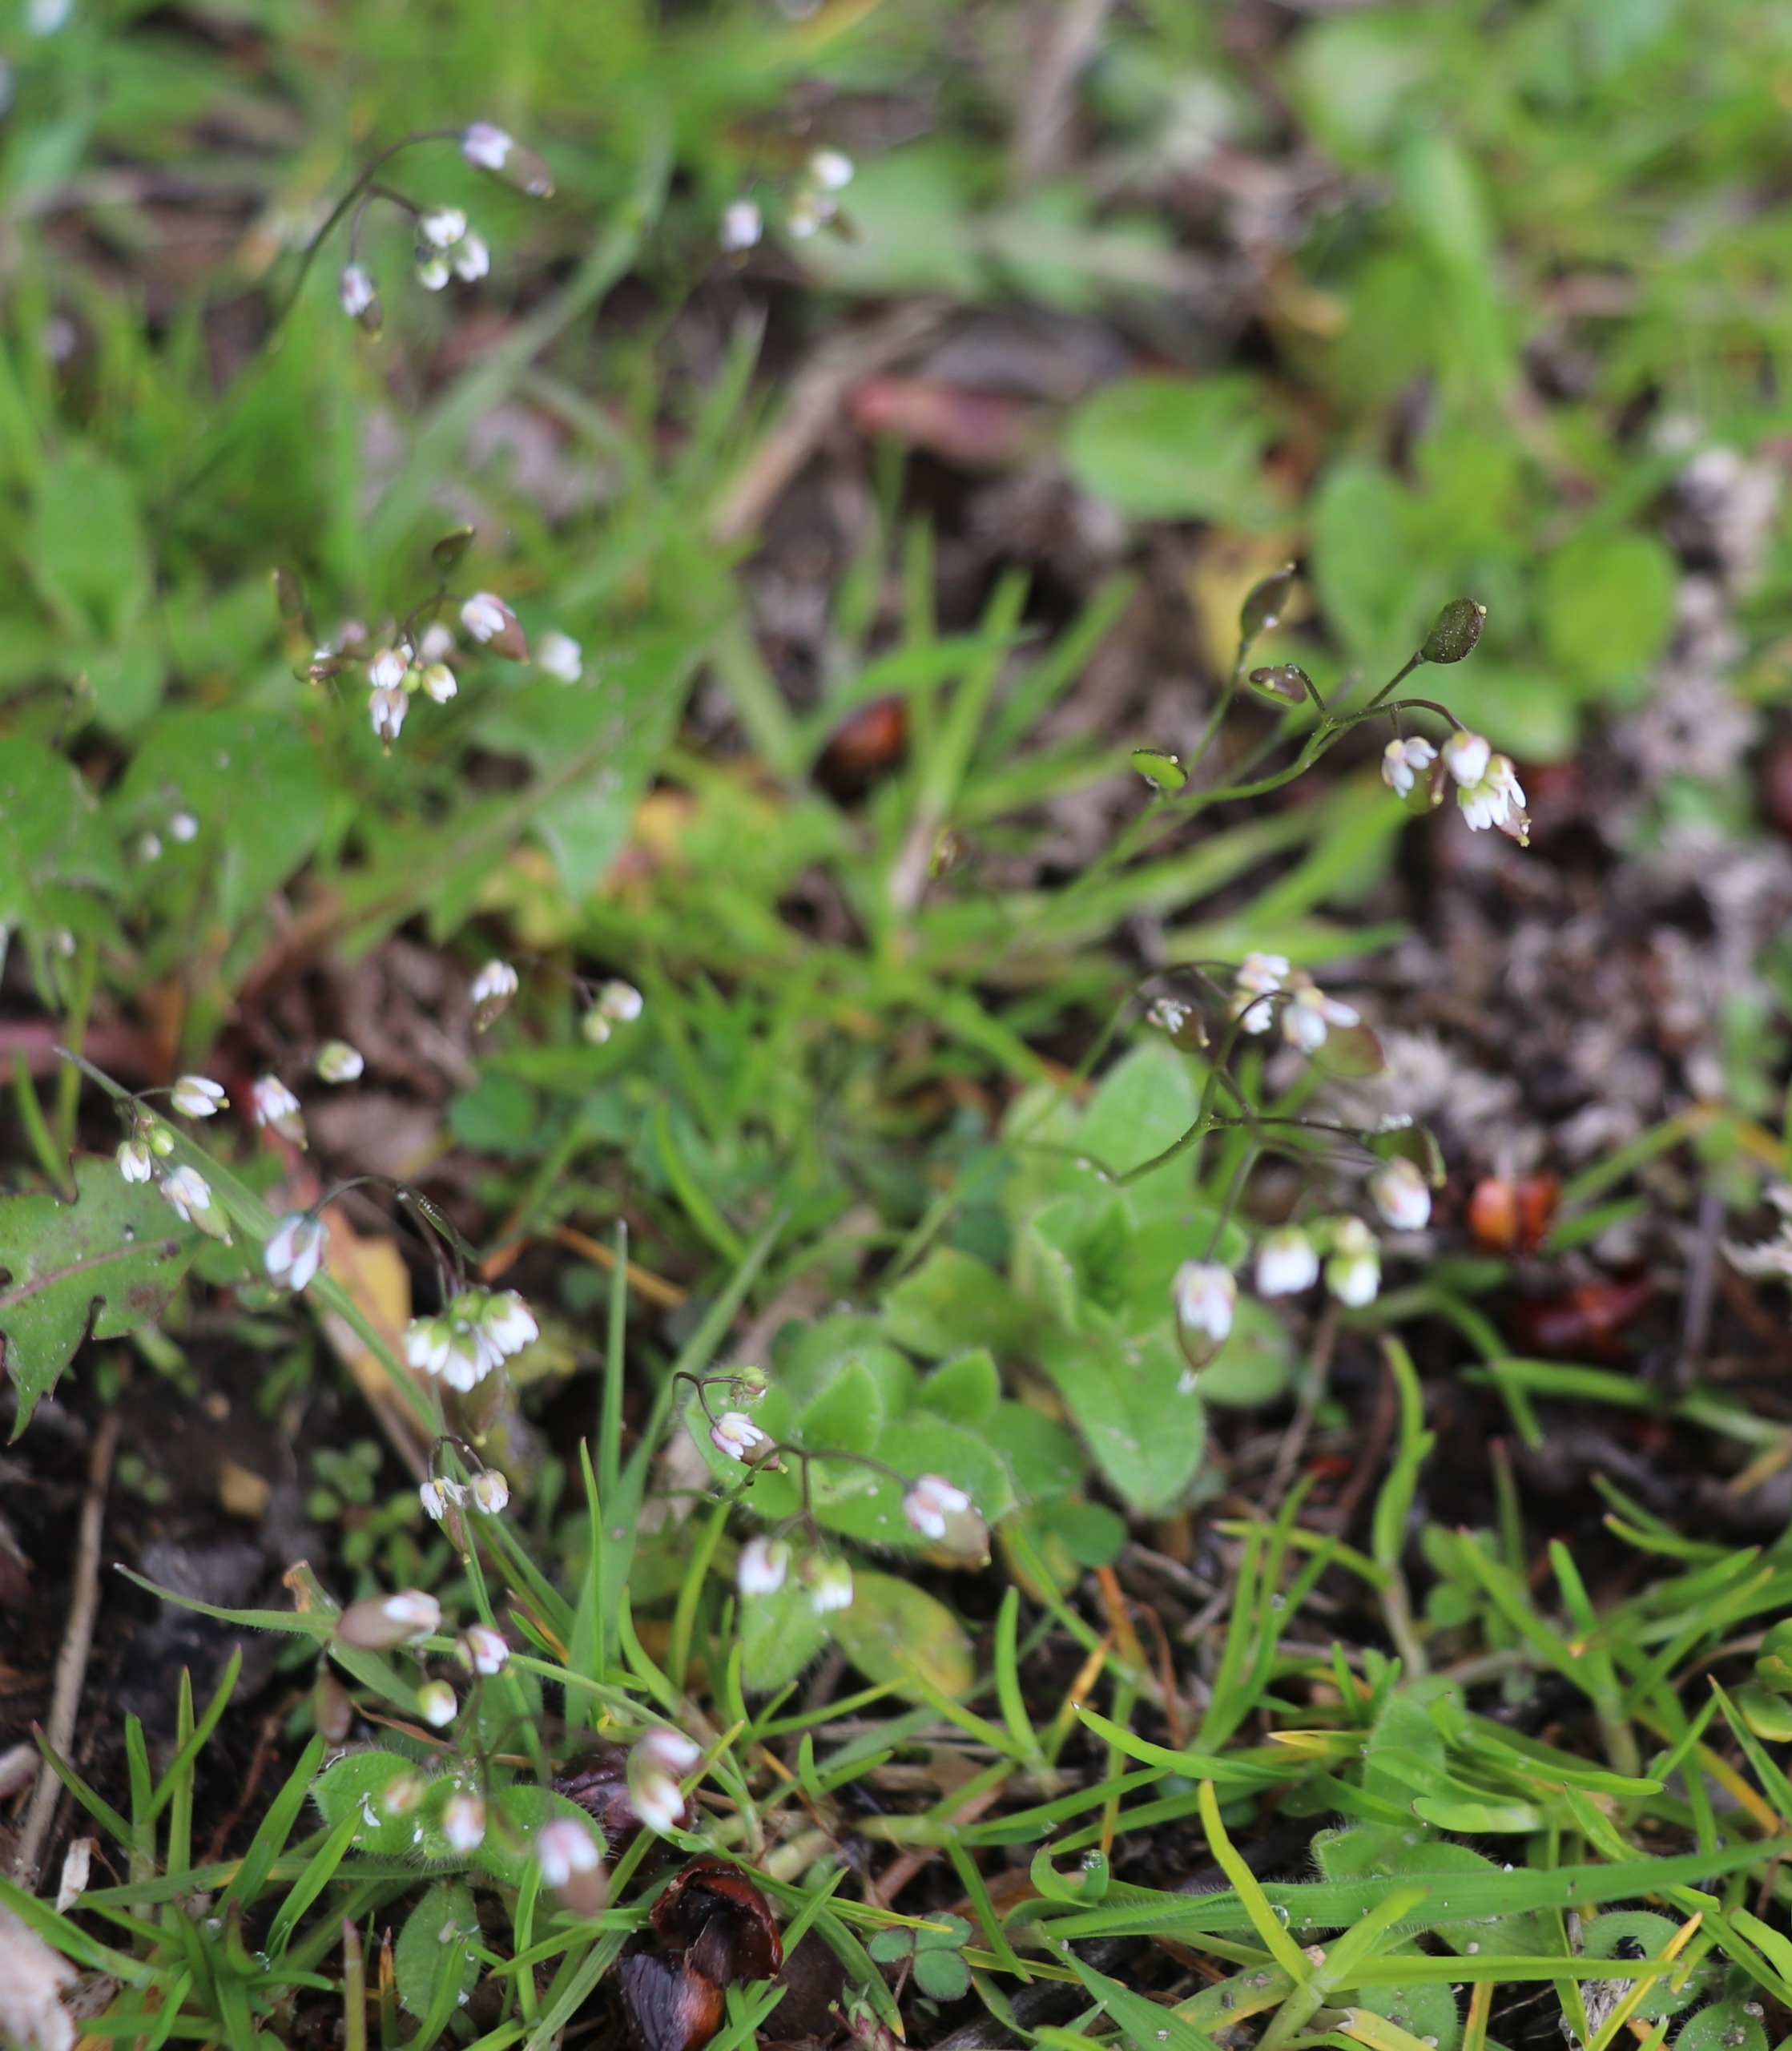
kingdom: Plantae
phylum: Tracheophyta
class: Magnoliopsida
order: Brassicales
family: Brassicaceae
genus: Draba
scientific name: Draba verna
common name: Vår-gæslingeblomst
